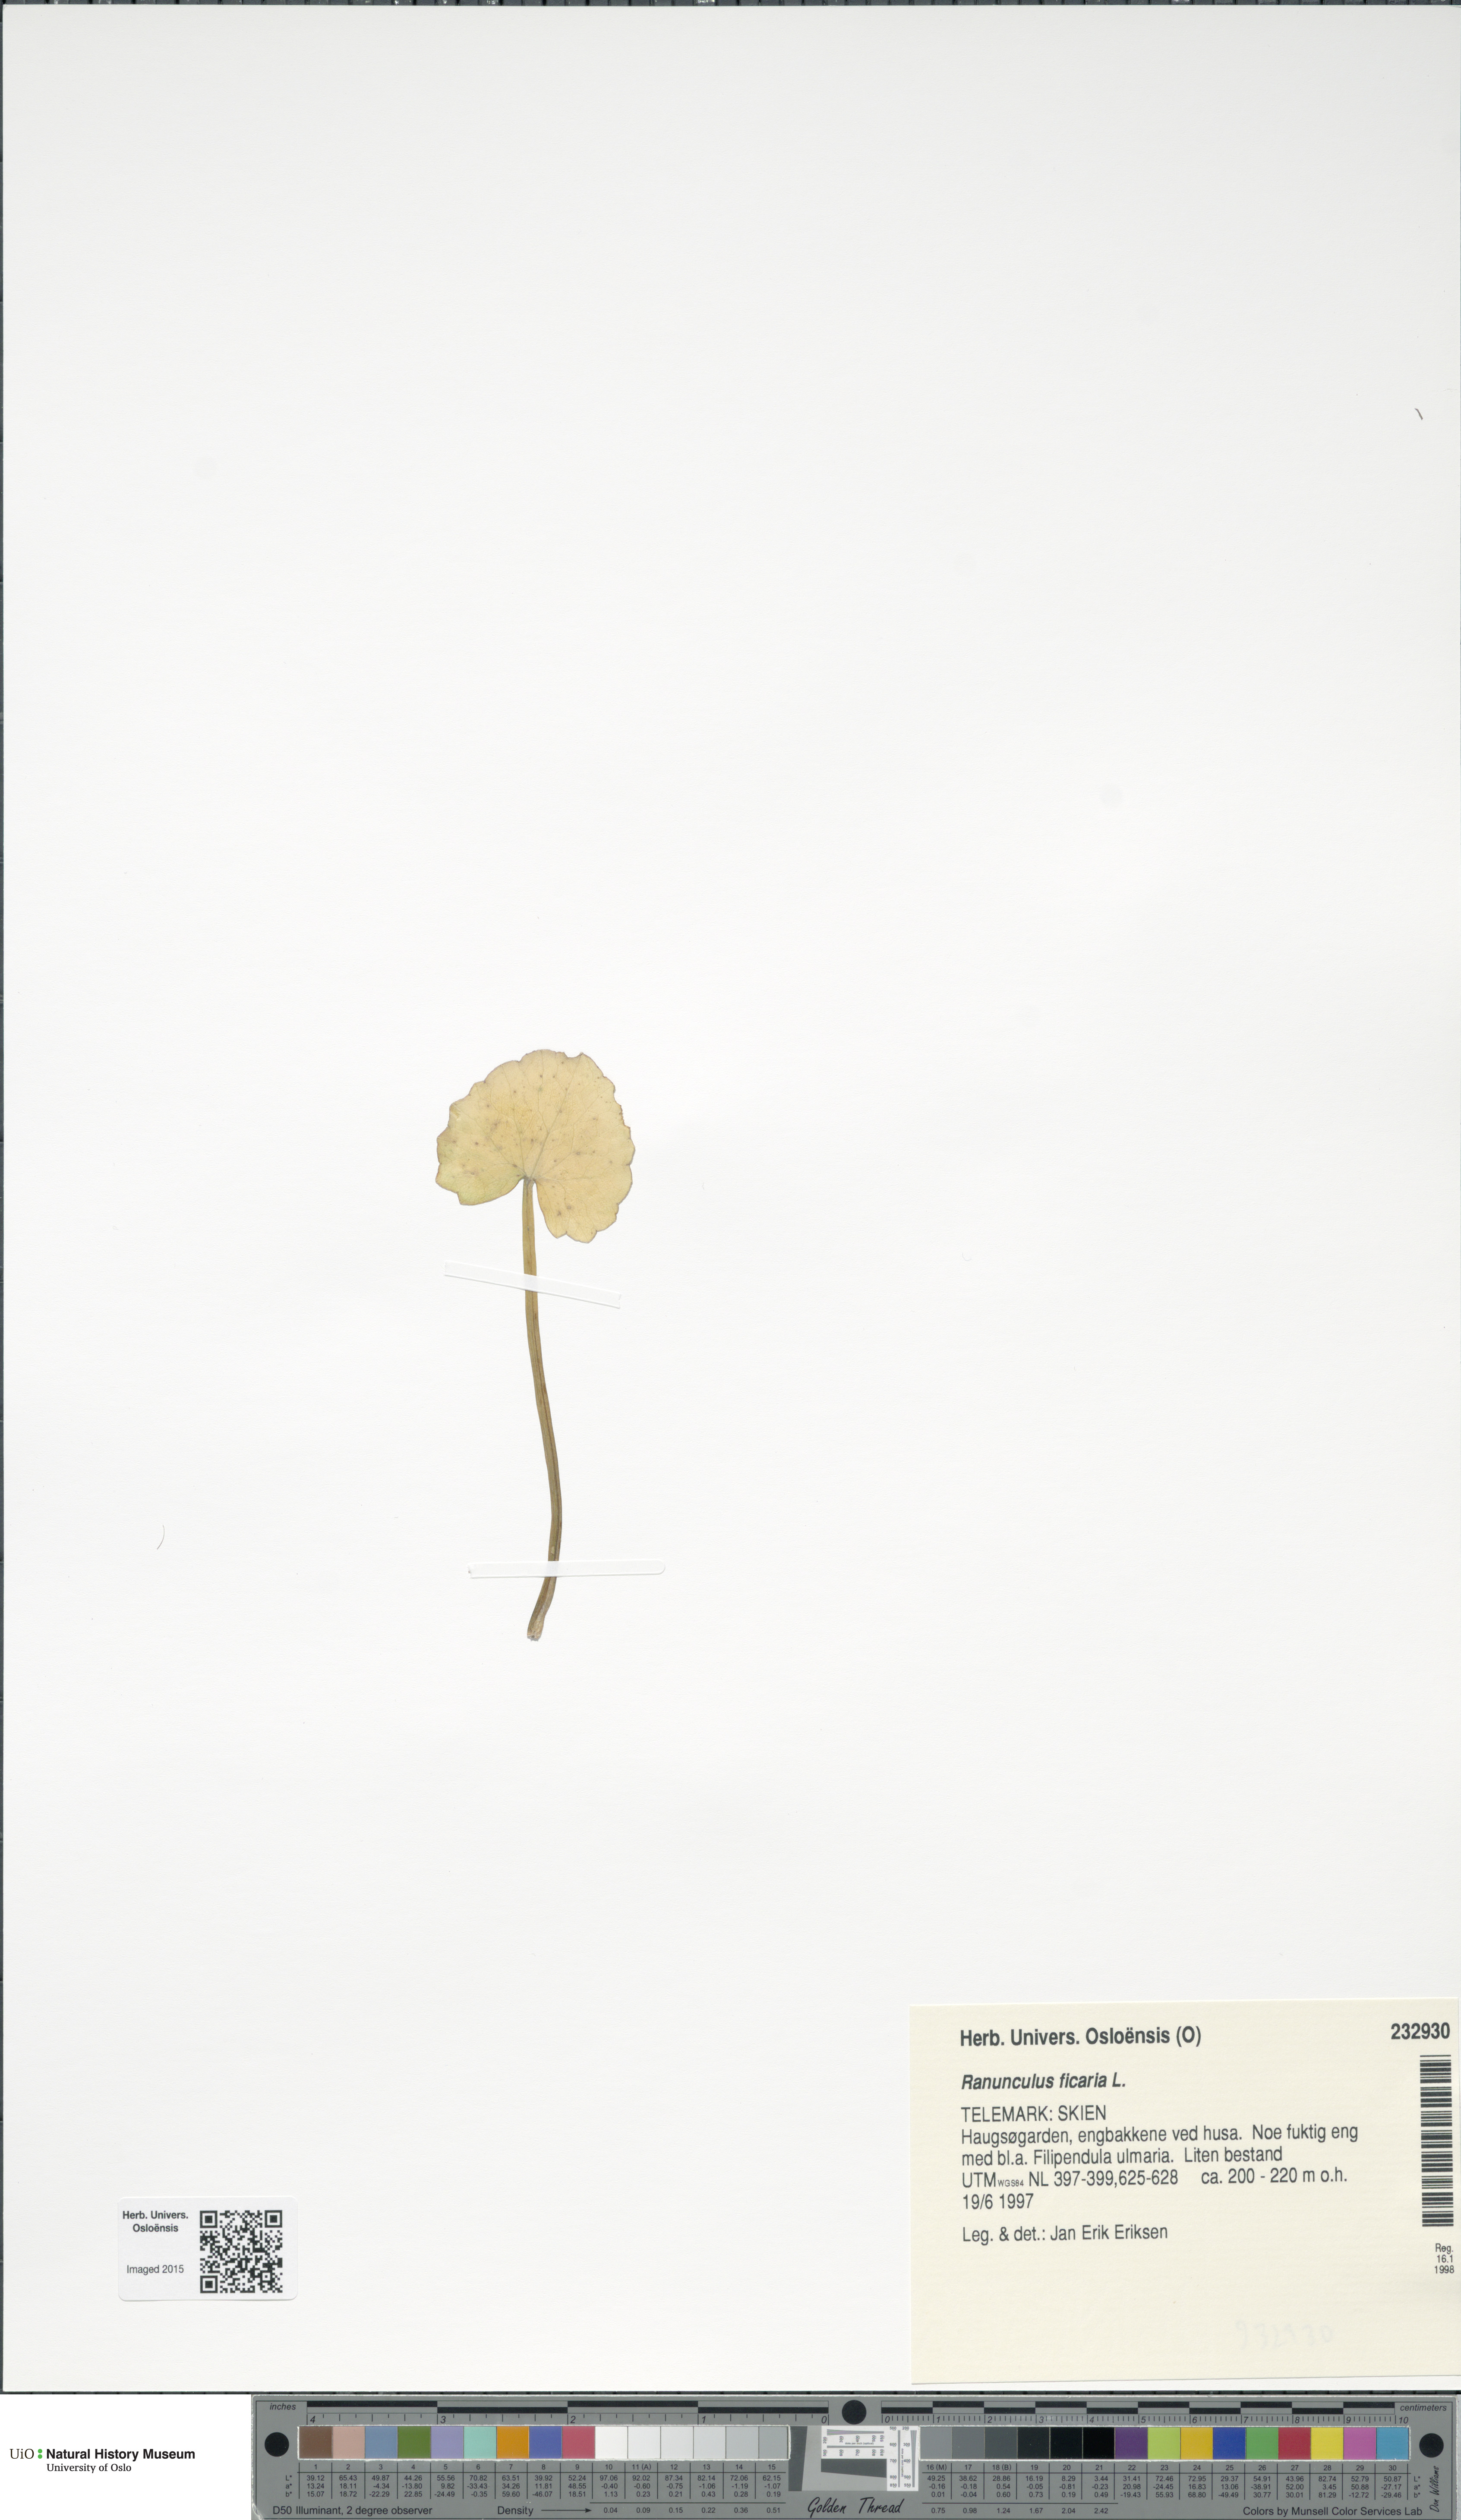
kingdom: Plantae
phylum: Tracheophyta
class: Magnoliopsida
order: Ranunculales
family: Ranunculaceae
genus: Ficaria
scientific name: Ficaria verna
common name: Lesser celandine
